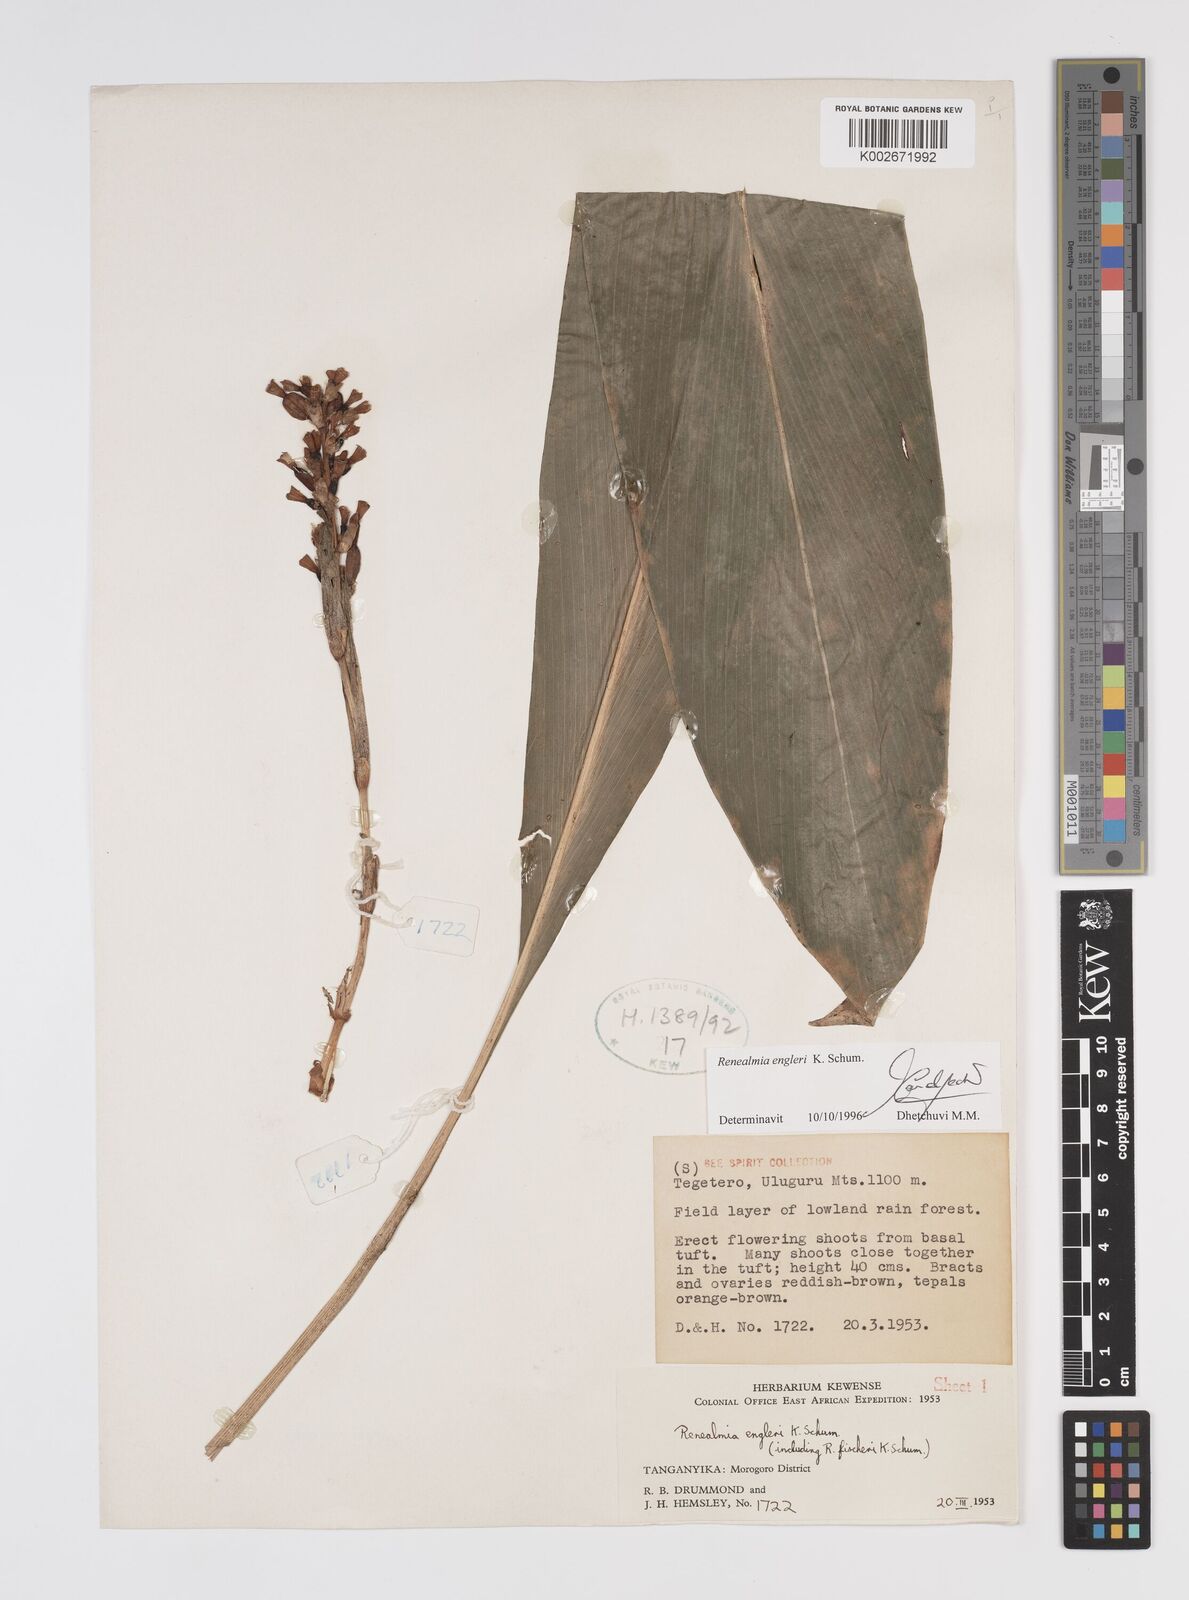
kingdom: Plantae
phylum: Tracheophyta
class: Liliopsida
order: Zingiberales
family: Zingiberaceae
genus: Renealmia
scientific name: Renealmia engleri
